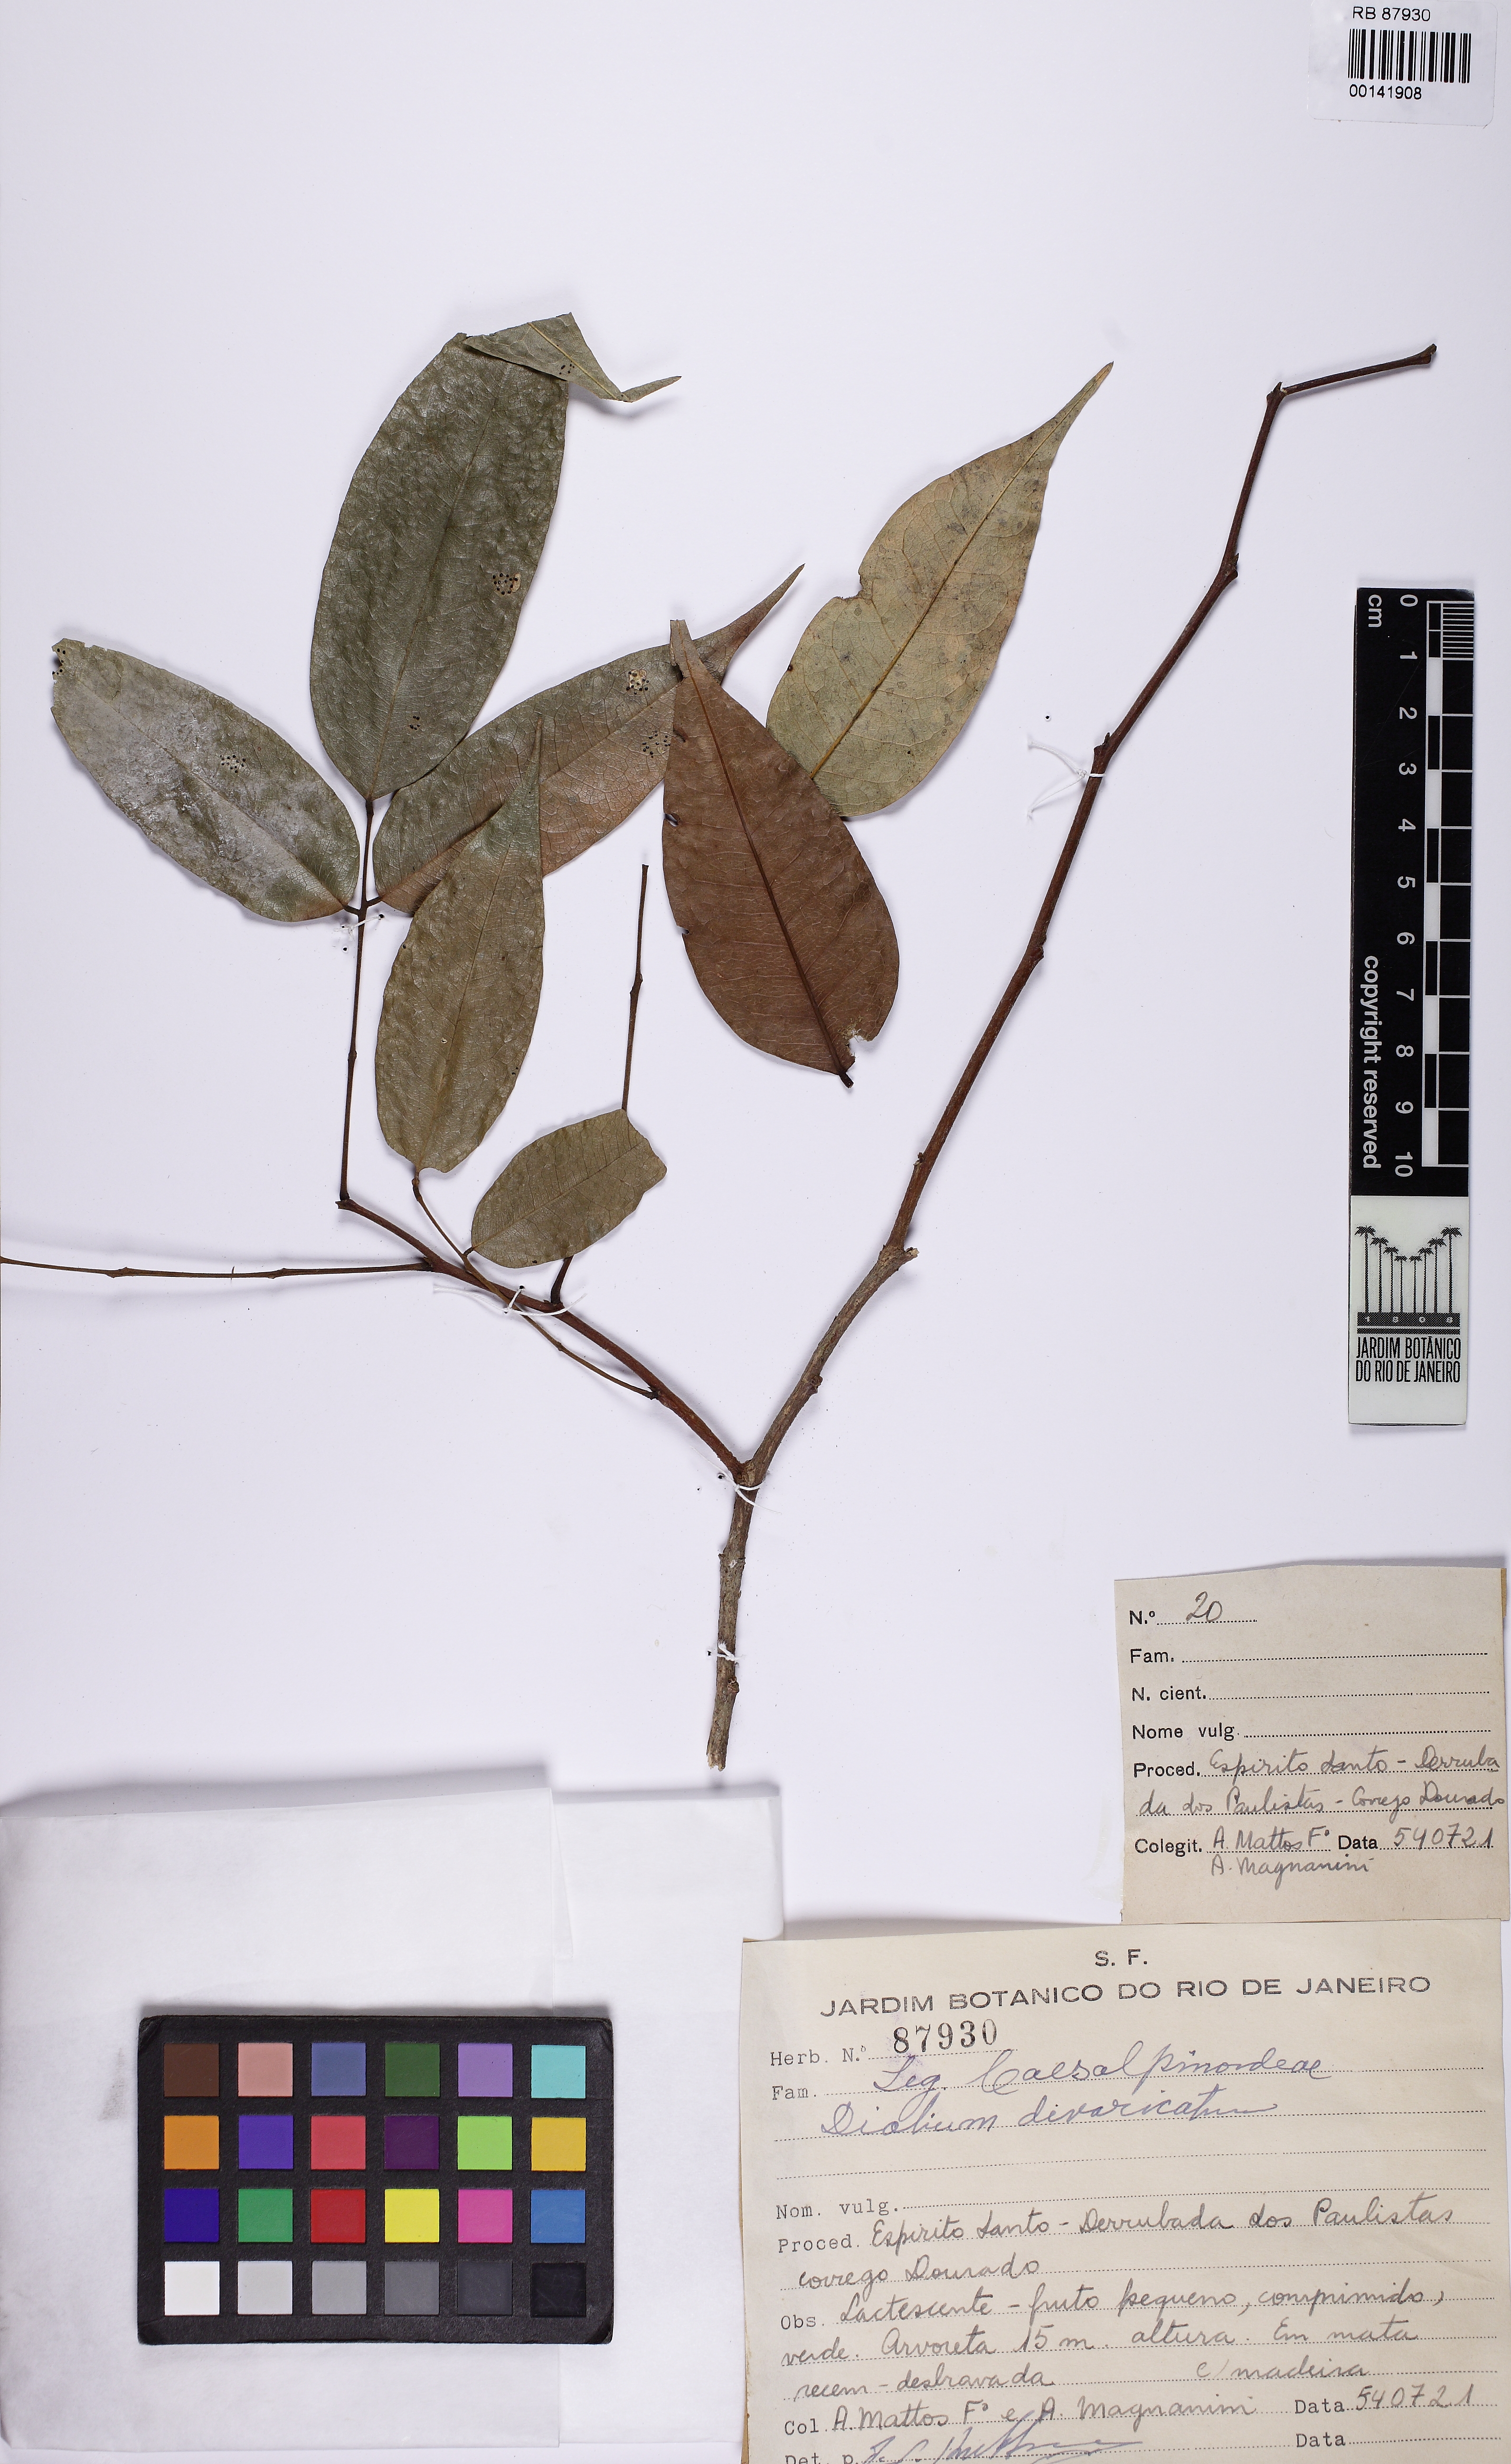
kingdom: Plantae
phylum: Tracheophyta
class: Magnoliopsida
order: Fabales
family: Fabaceae
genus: Dialium
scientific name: Dialium guianense
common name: Ironwood
